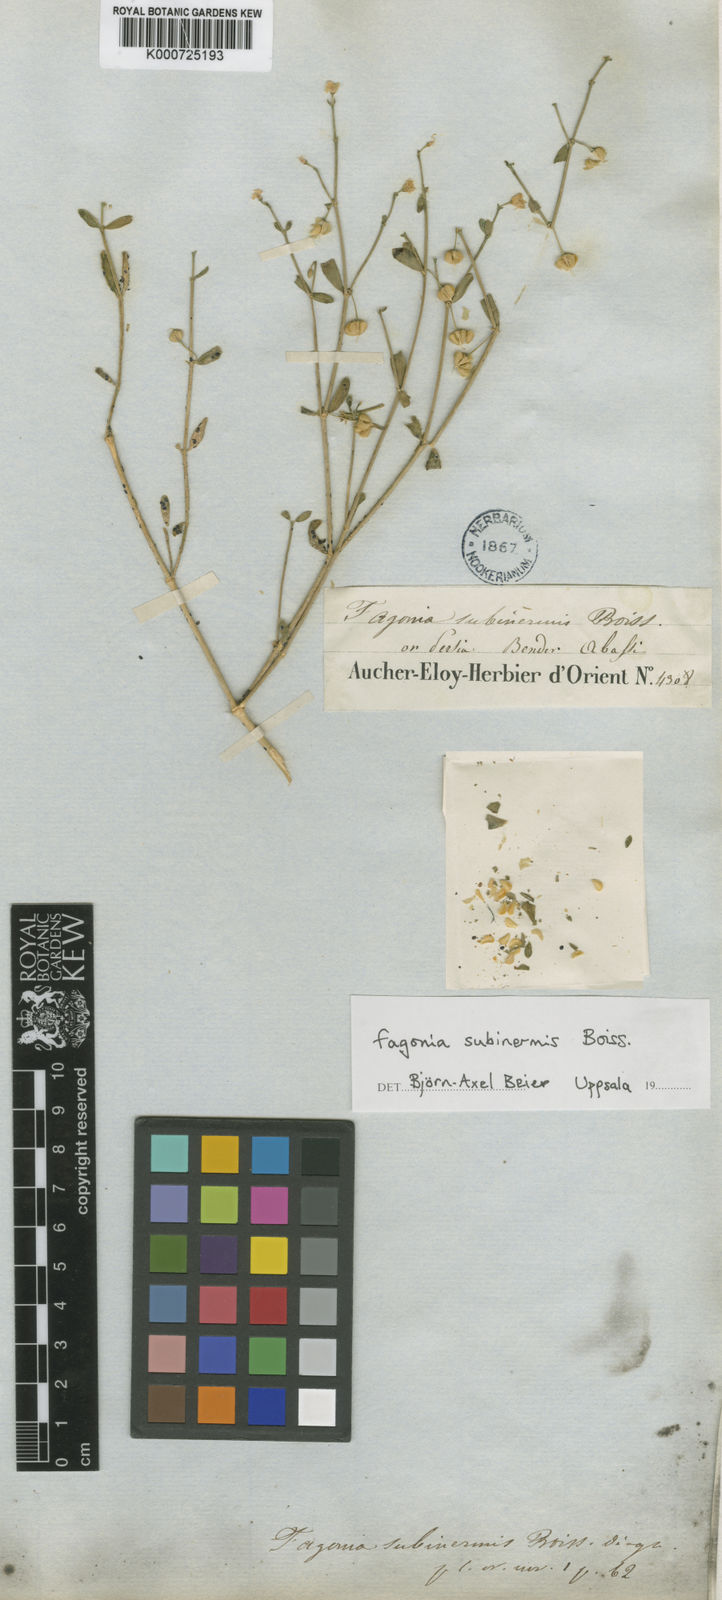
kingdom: Plantae
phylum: Tracheophyta
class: Magnoliopsida
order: Zygophyllales
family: Zygophyllaceae
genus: Fagonia
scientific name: Fagonia subinermis
